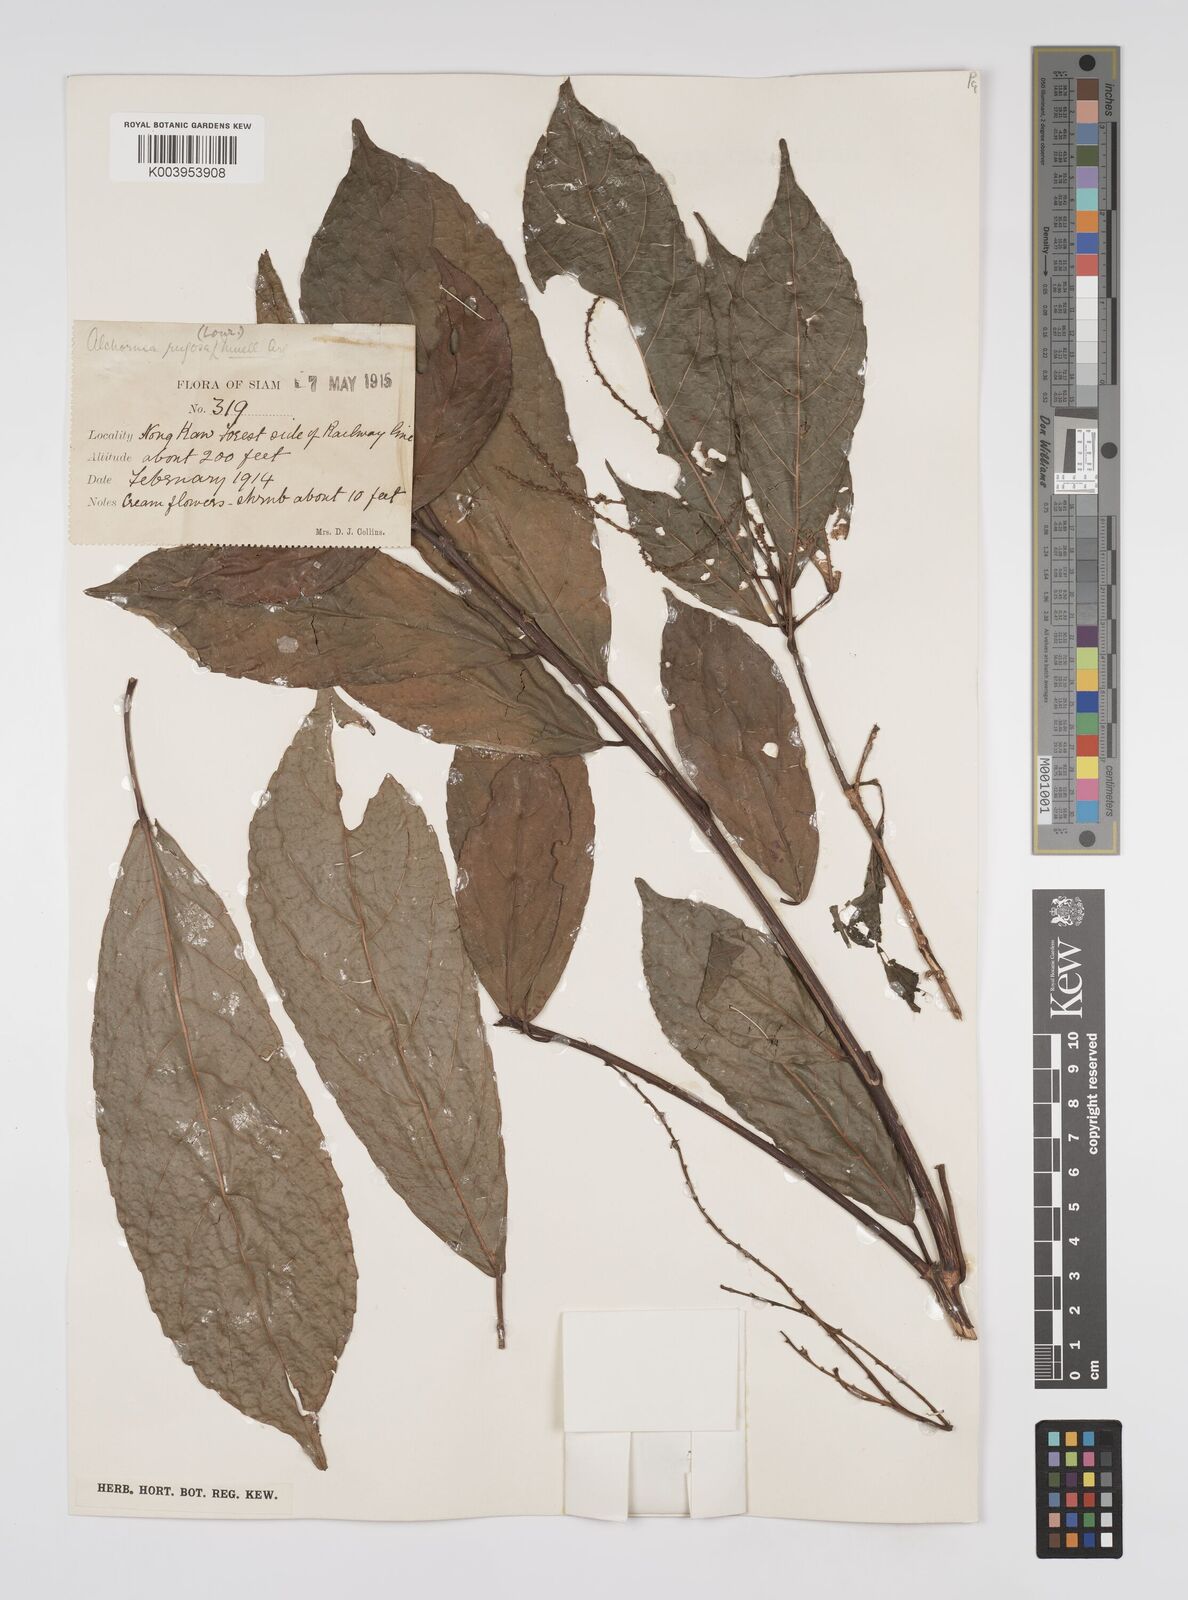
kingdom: Plantae
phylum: Tracheophyta
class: Magnoliopsida
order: Malpighiales
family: Euphorbiaceae
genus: Alchornea
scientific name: Alchornea rugosa
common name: Alchorntree
